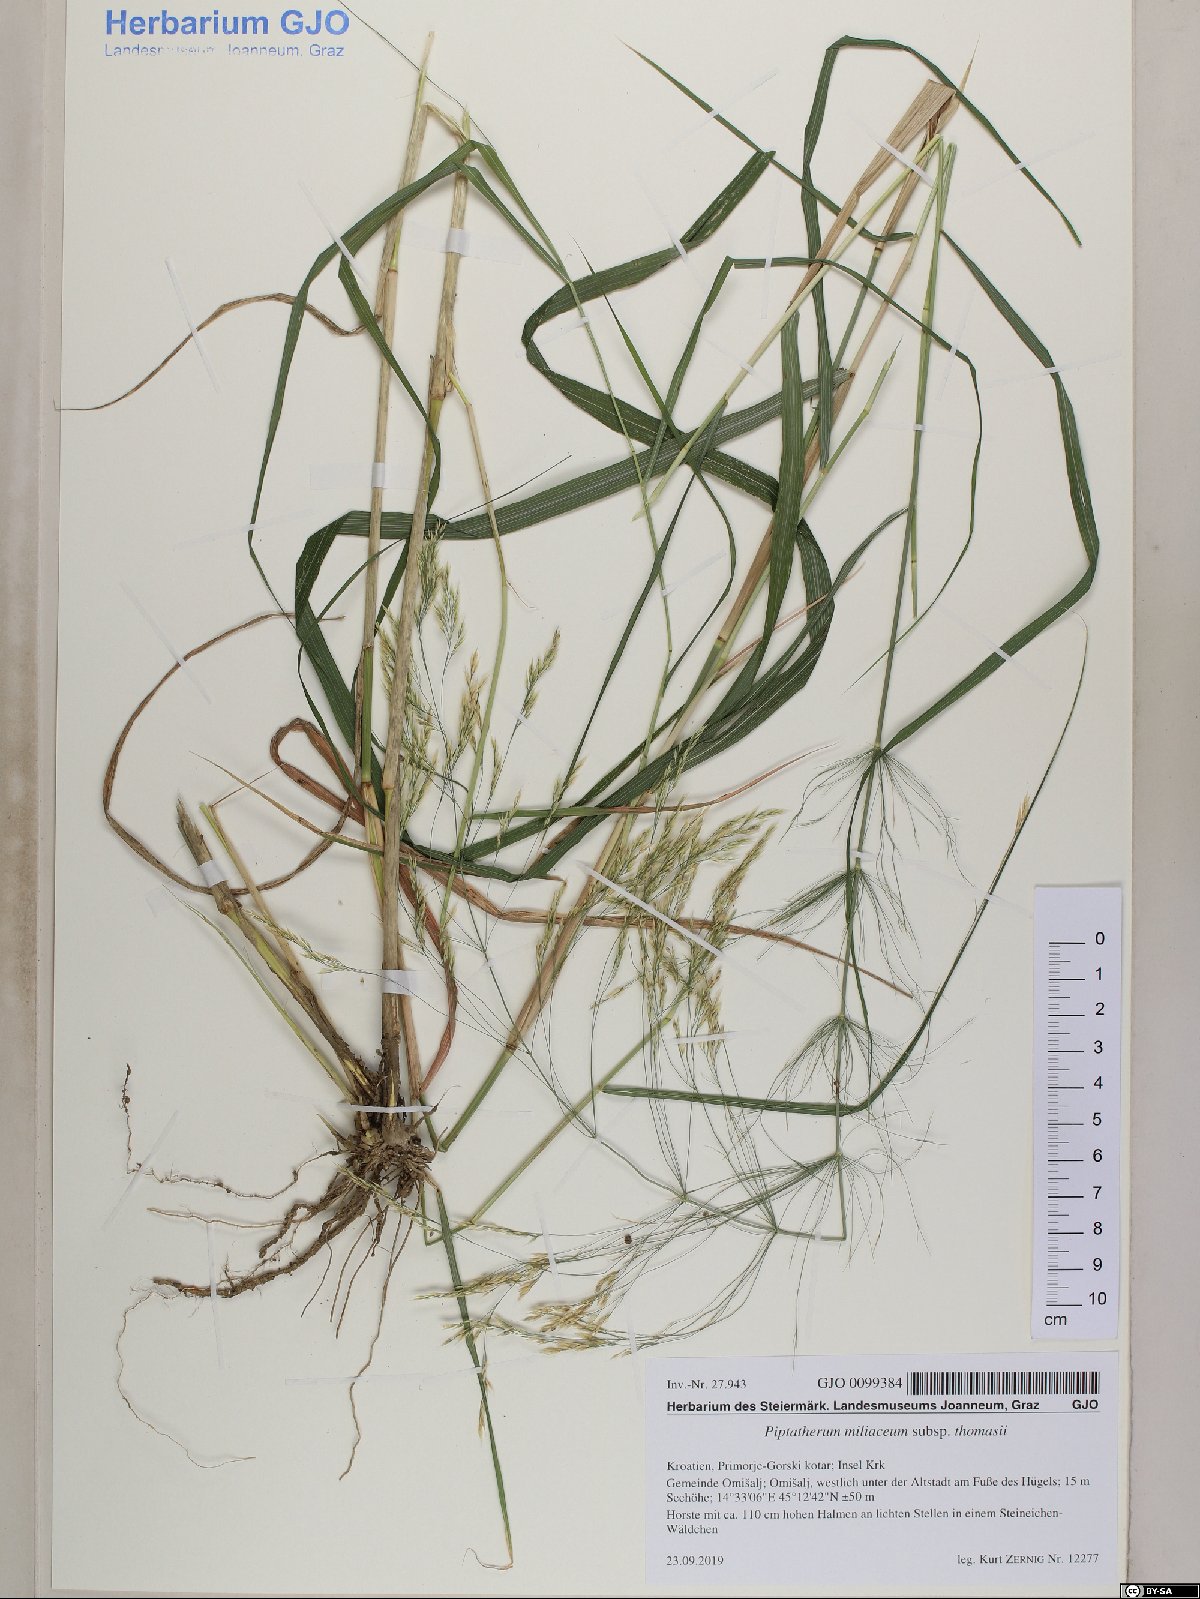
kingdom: Plantae
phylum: Tracheophyta
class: Liliopsida
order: Poales
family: Poaceae
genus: Oloptum
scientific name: Oloptum thomasii
